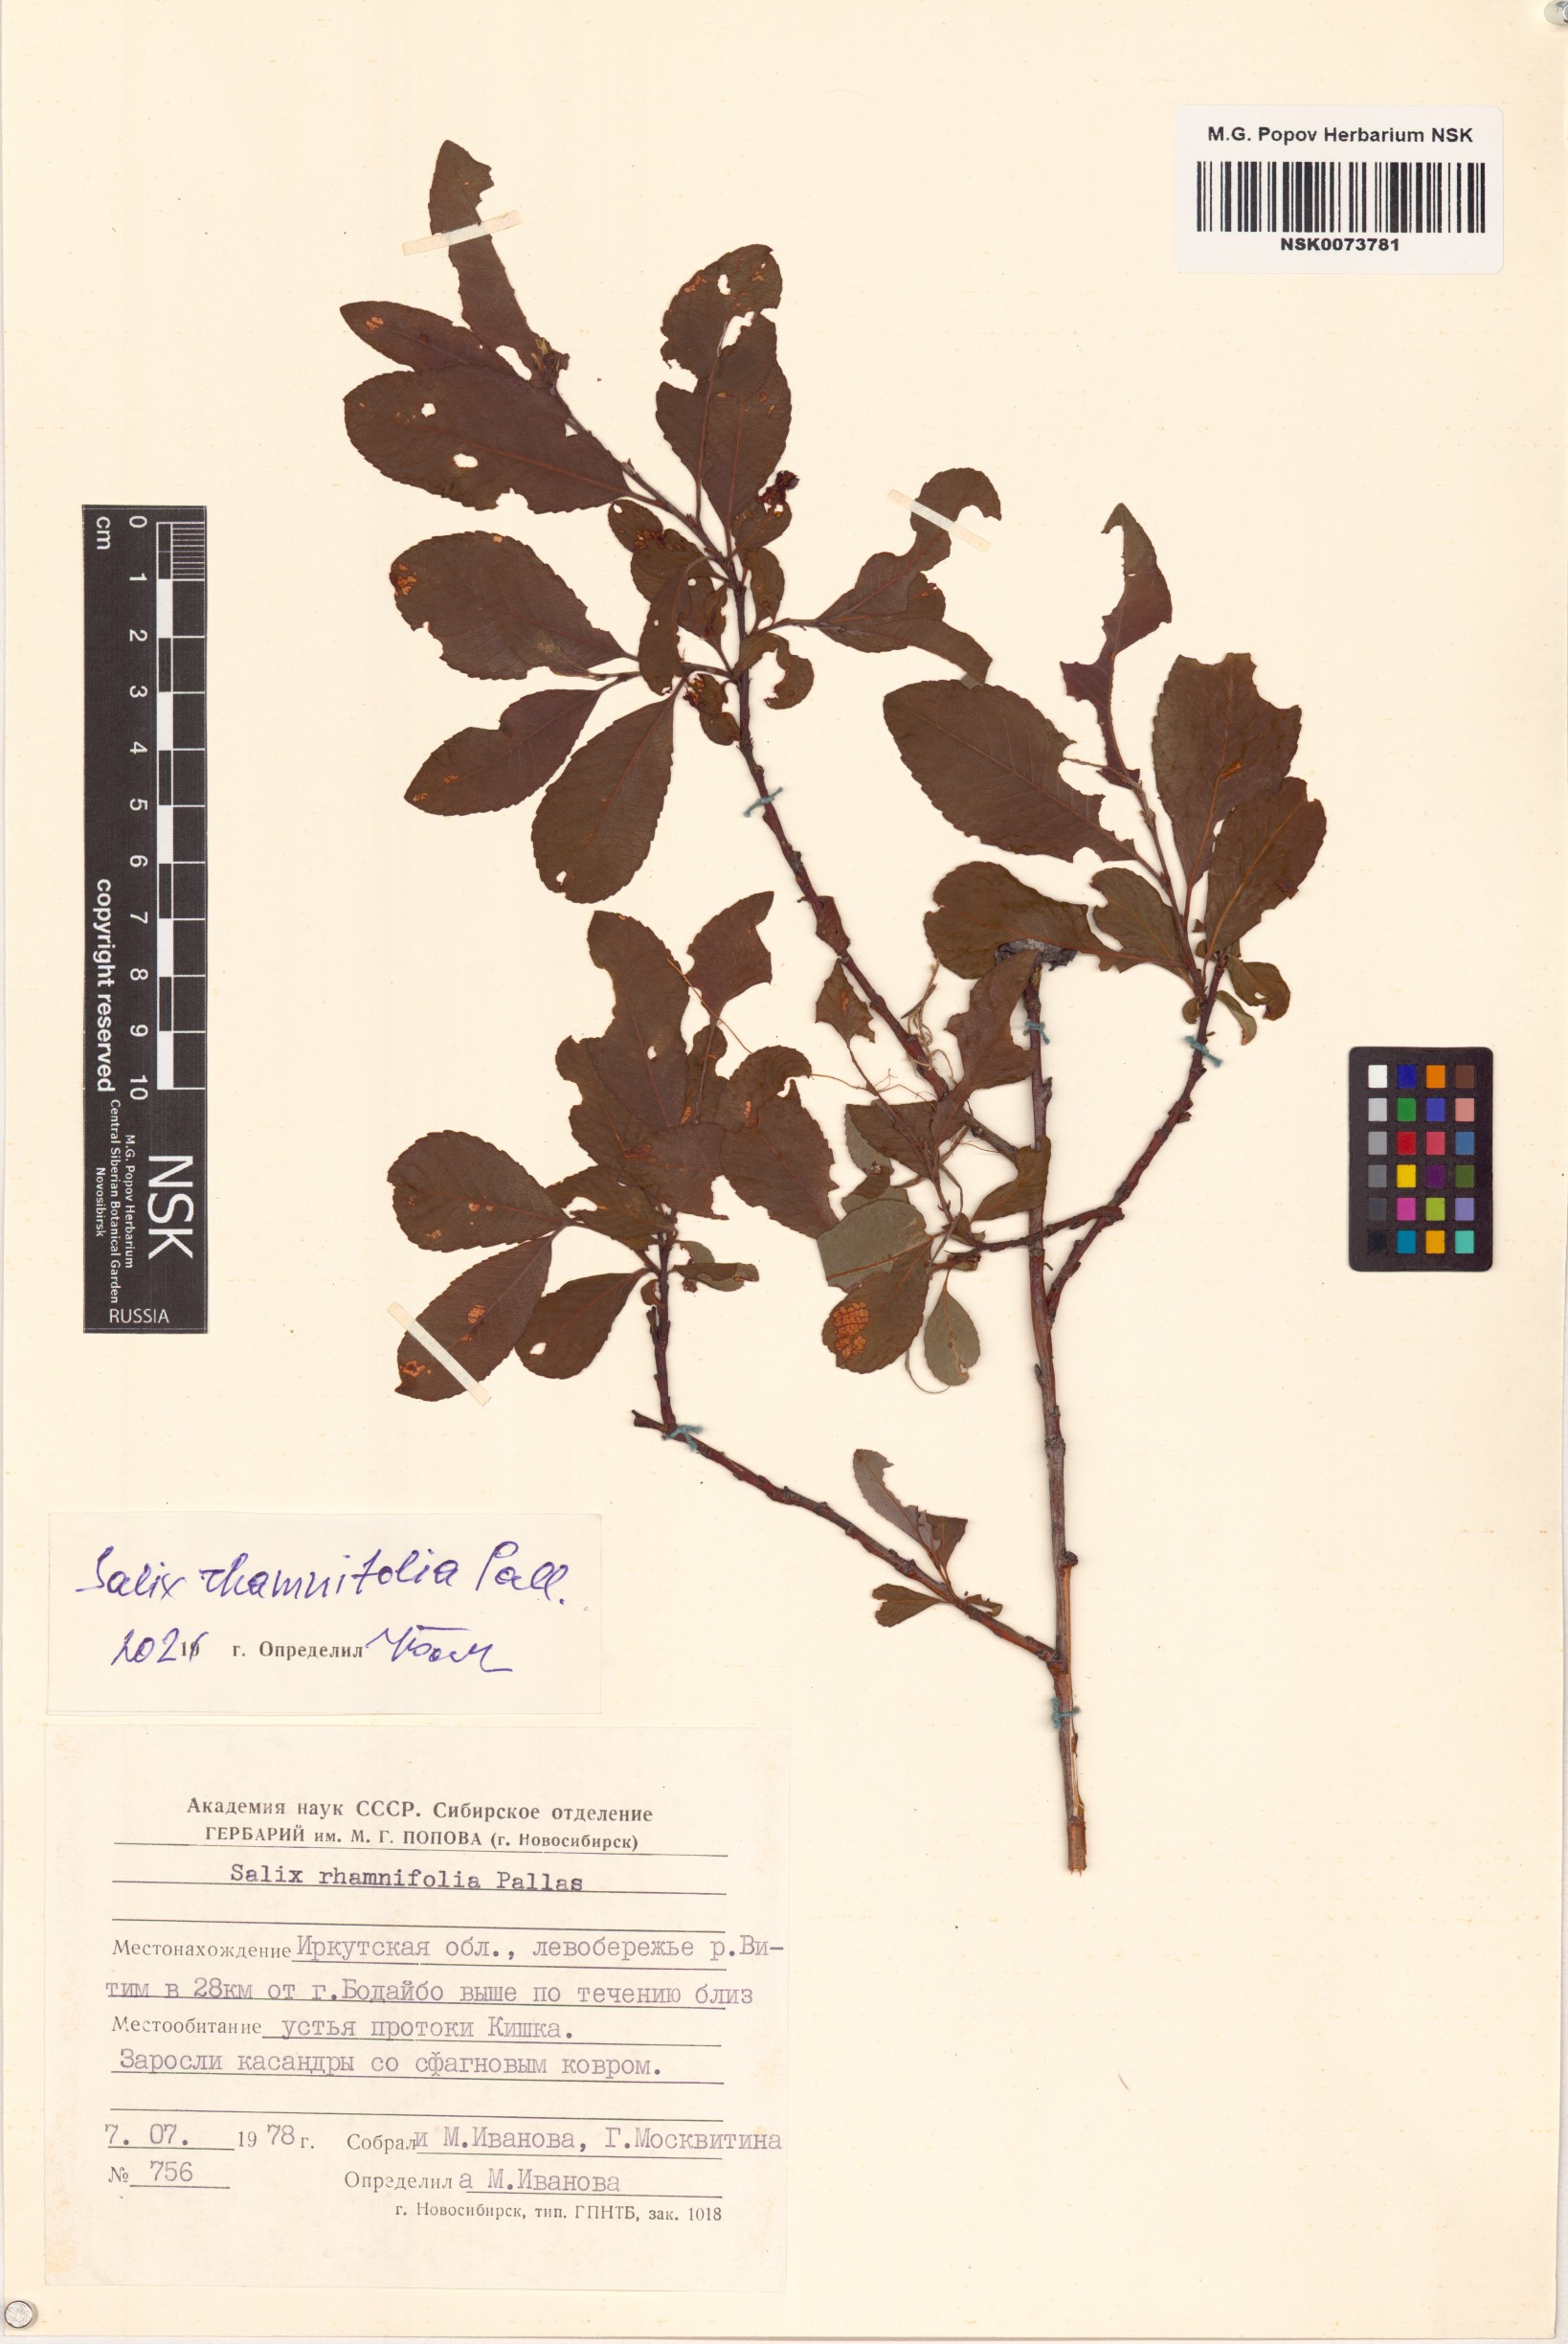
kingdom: Plantae
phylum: Tracheophyta
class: Magnoliopsida
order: Malpighiales
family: Salicaceae
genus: Salix
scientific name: Salix rhamnifolia
